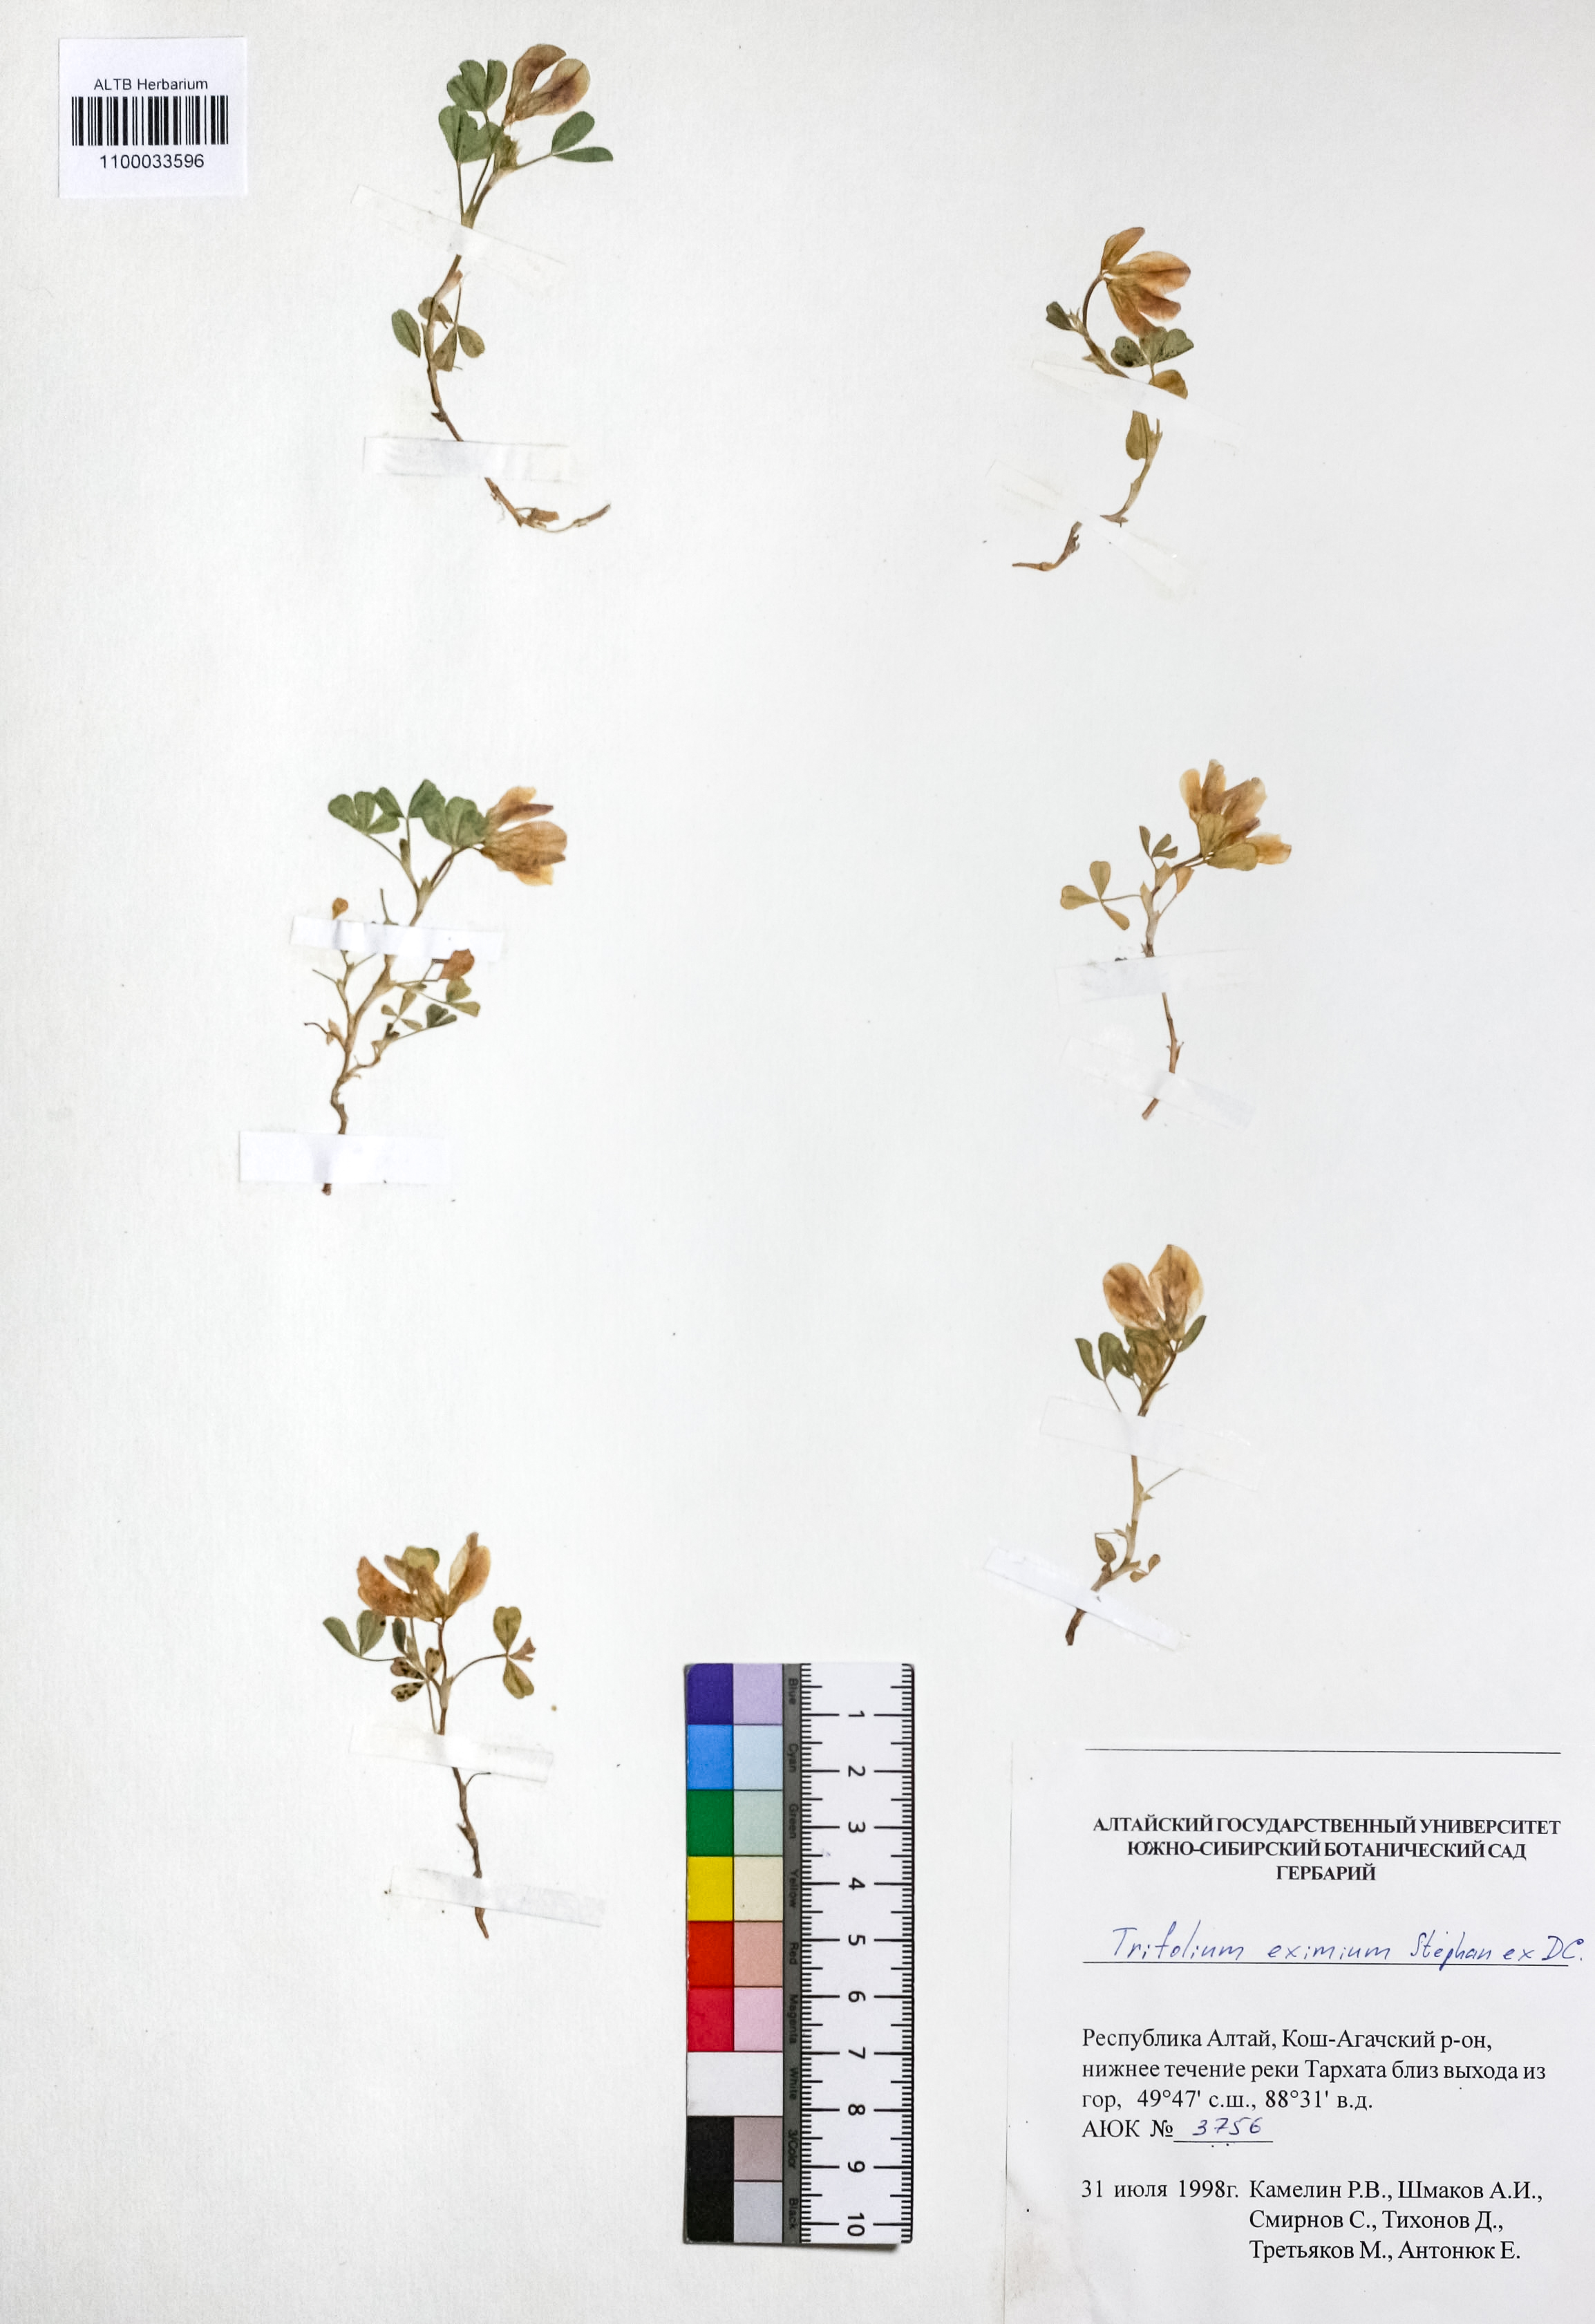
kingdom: Plantae
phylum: Tracheophyta
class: Magnoliopsida
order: Fabales
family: Fabaceae
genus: Trifolium
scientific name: Trifolium eximium
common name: Excellent clover
